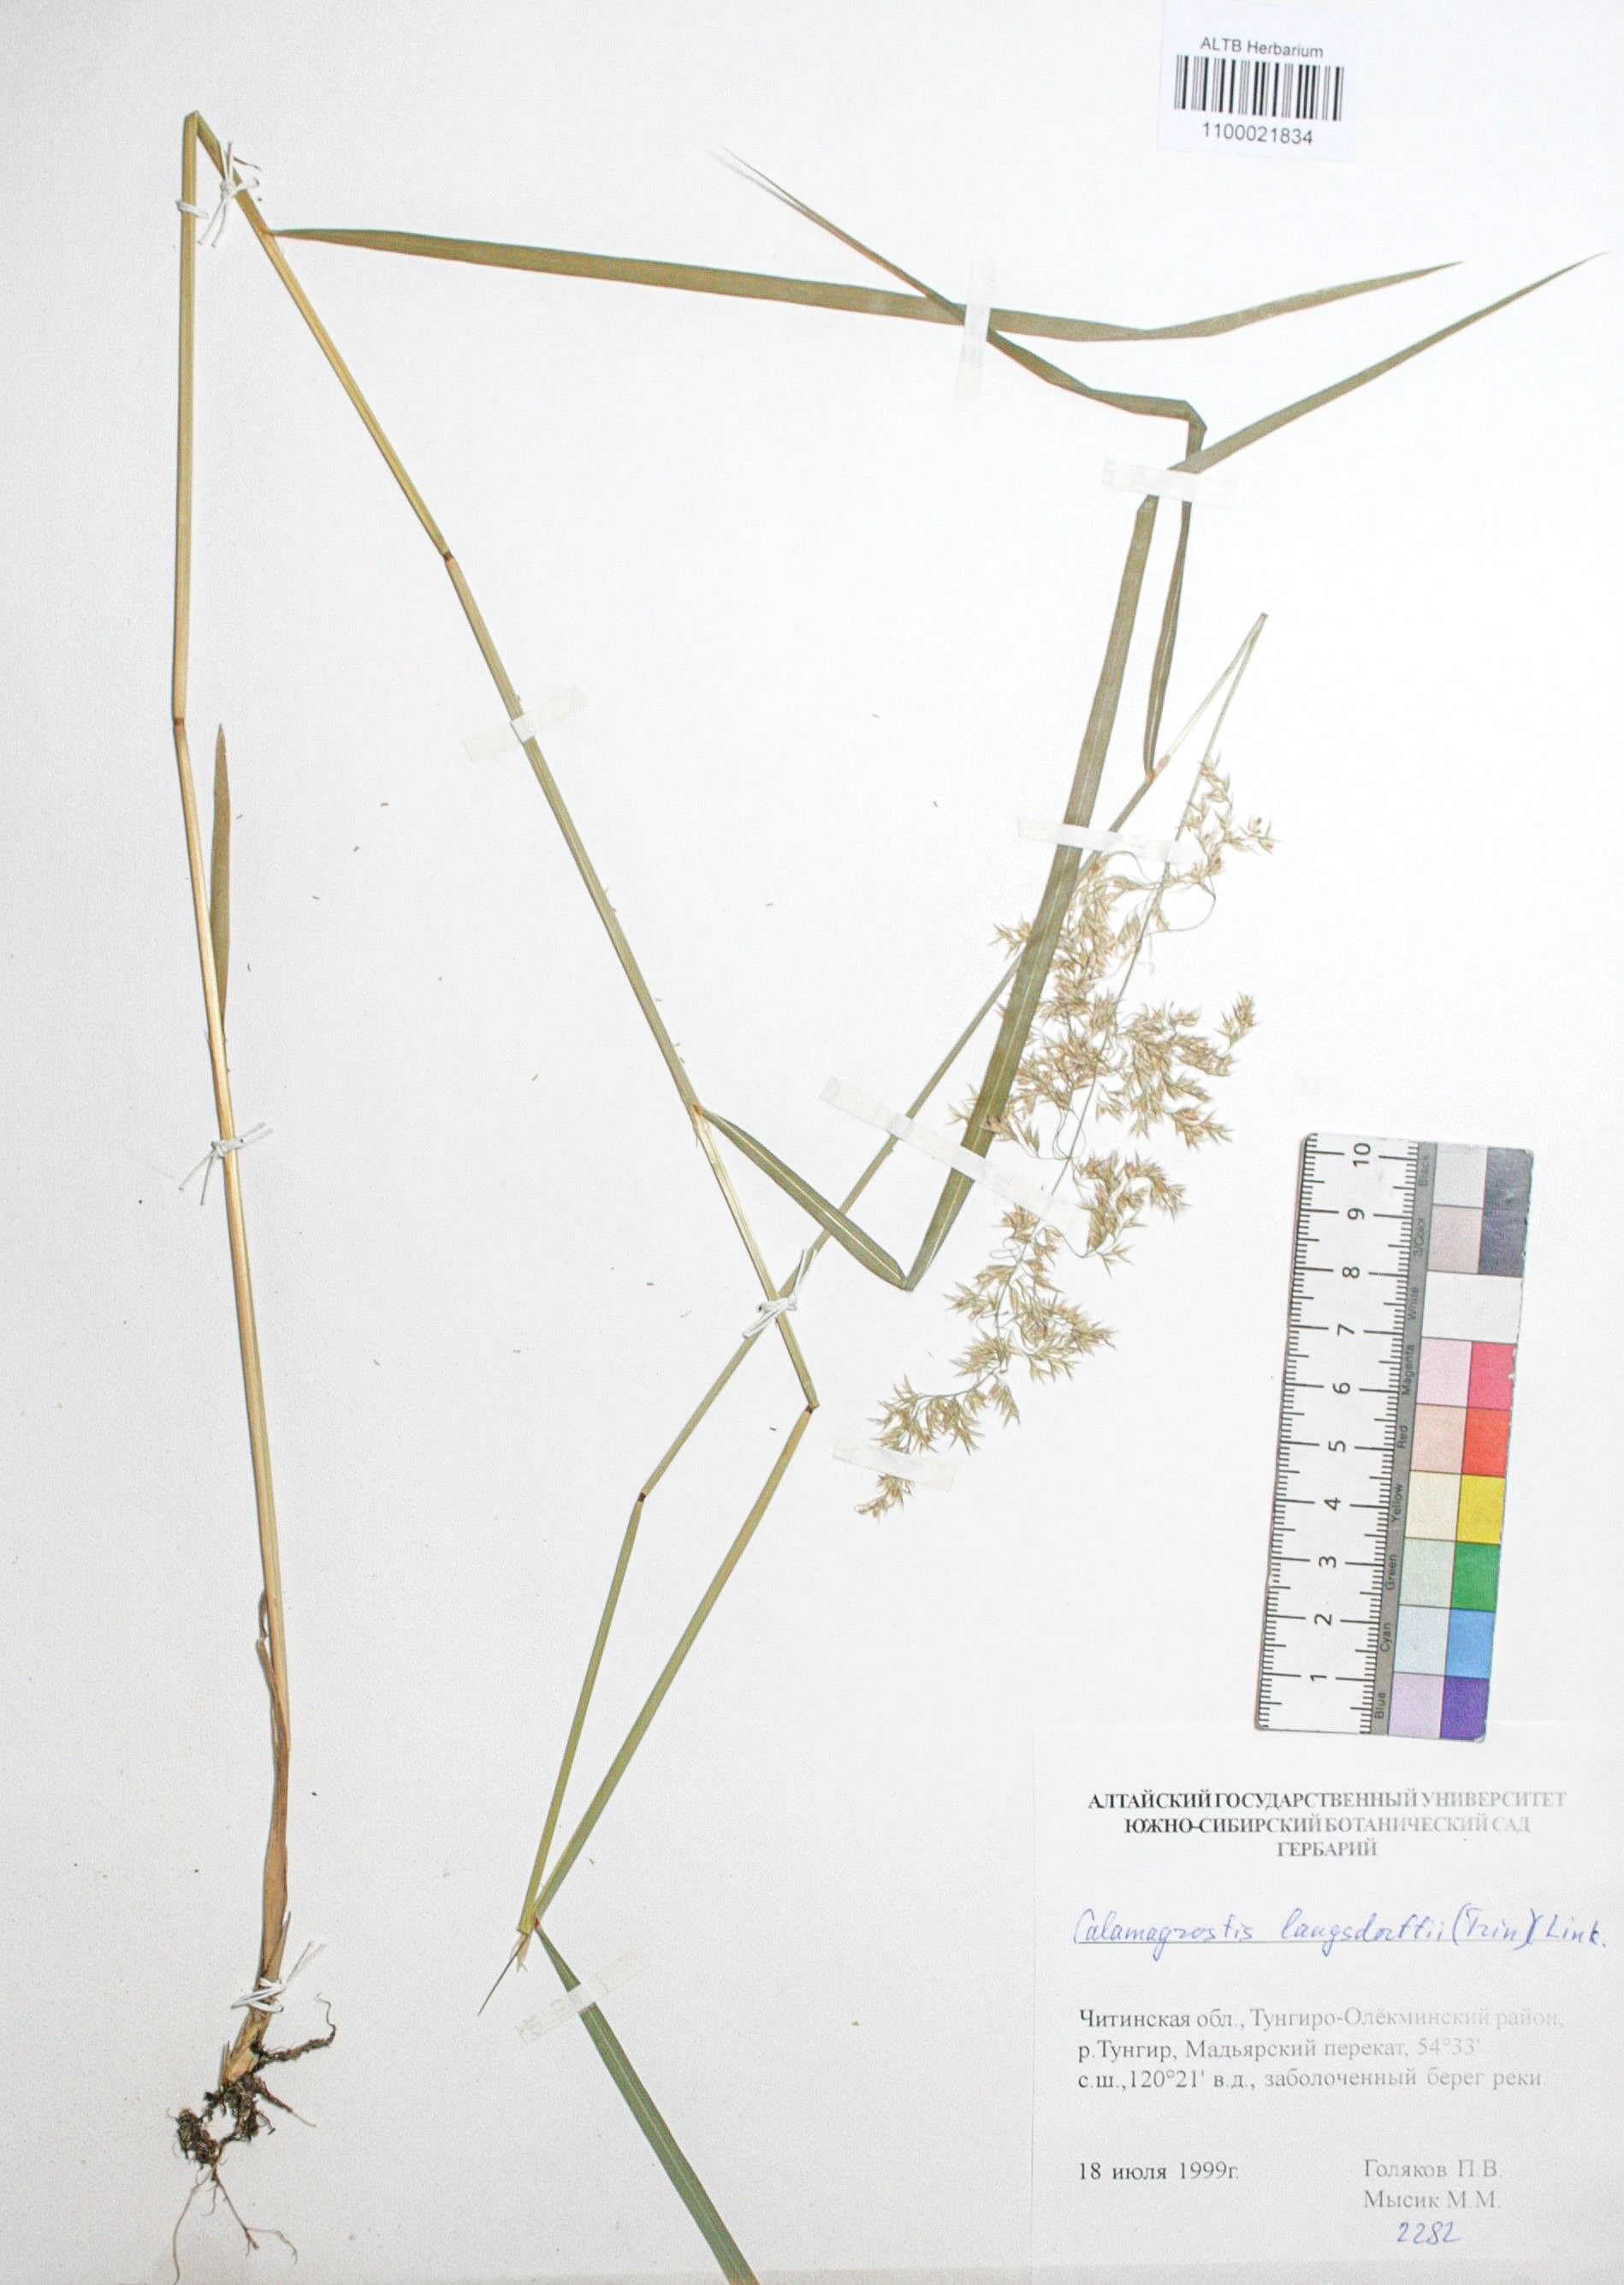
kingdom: Plantae
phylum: Tracheophyta
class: Liliopsida
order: Poales
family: Poaceae
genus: Calamagrostis
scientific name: Calamagrostis purpurea
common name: Scandinavian small-reed
